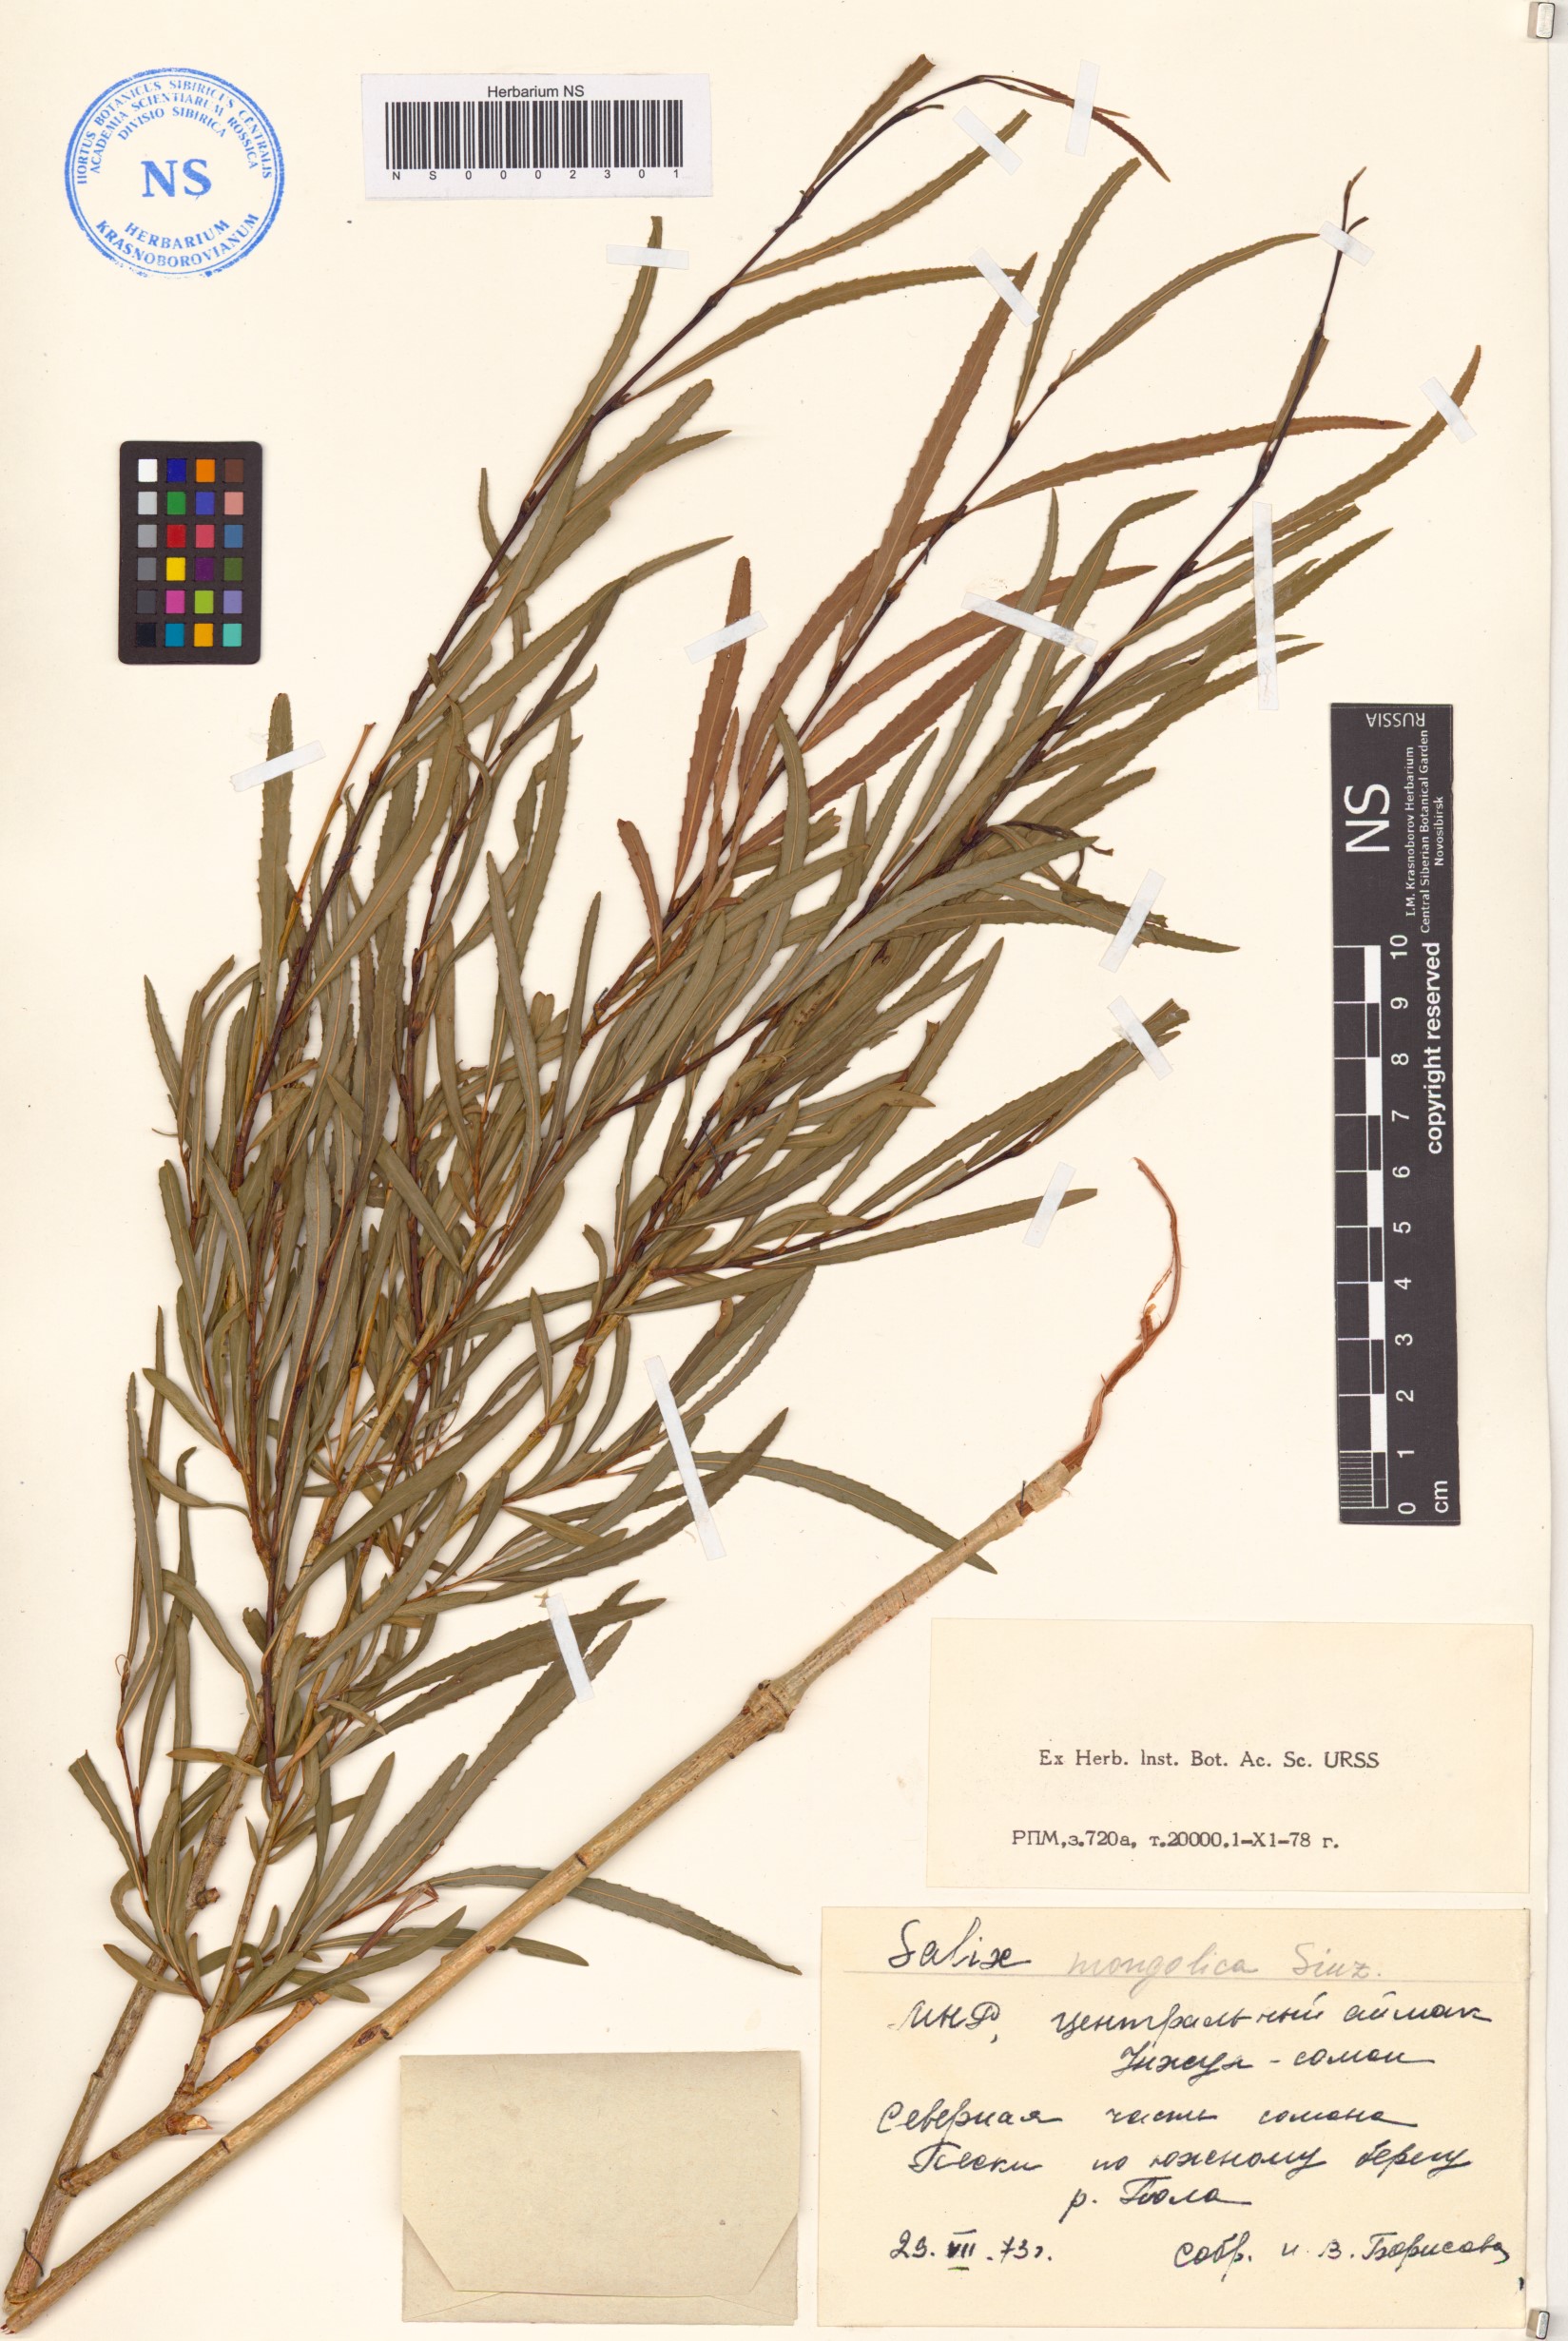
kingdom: Plantae
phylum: Tracheophyta
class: Magnoliopsida
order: Malpighiales
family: Salicaceae
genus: Salix
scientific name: Salix miyabeana
